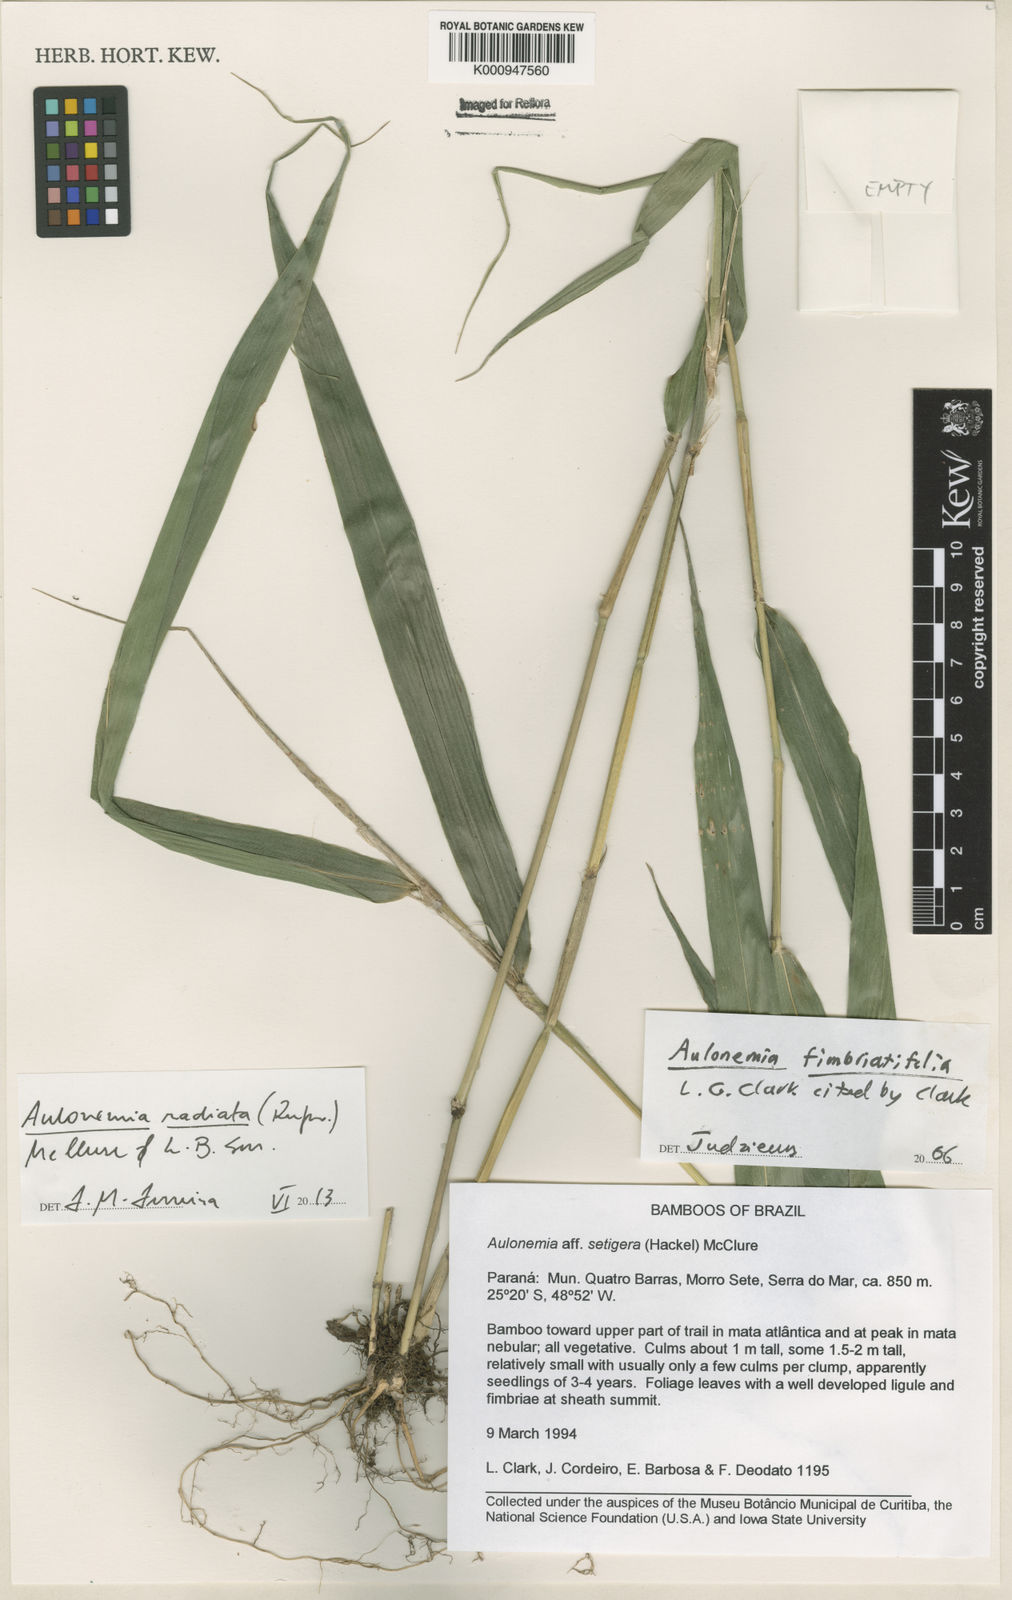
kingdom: Plantae
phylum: Tracheophyta
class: Liliopsida
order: Poales
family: Poaceae
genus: Aulonemia
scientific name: Aulonemia radiata
